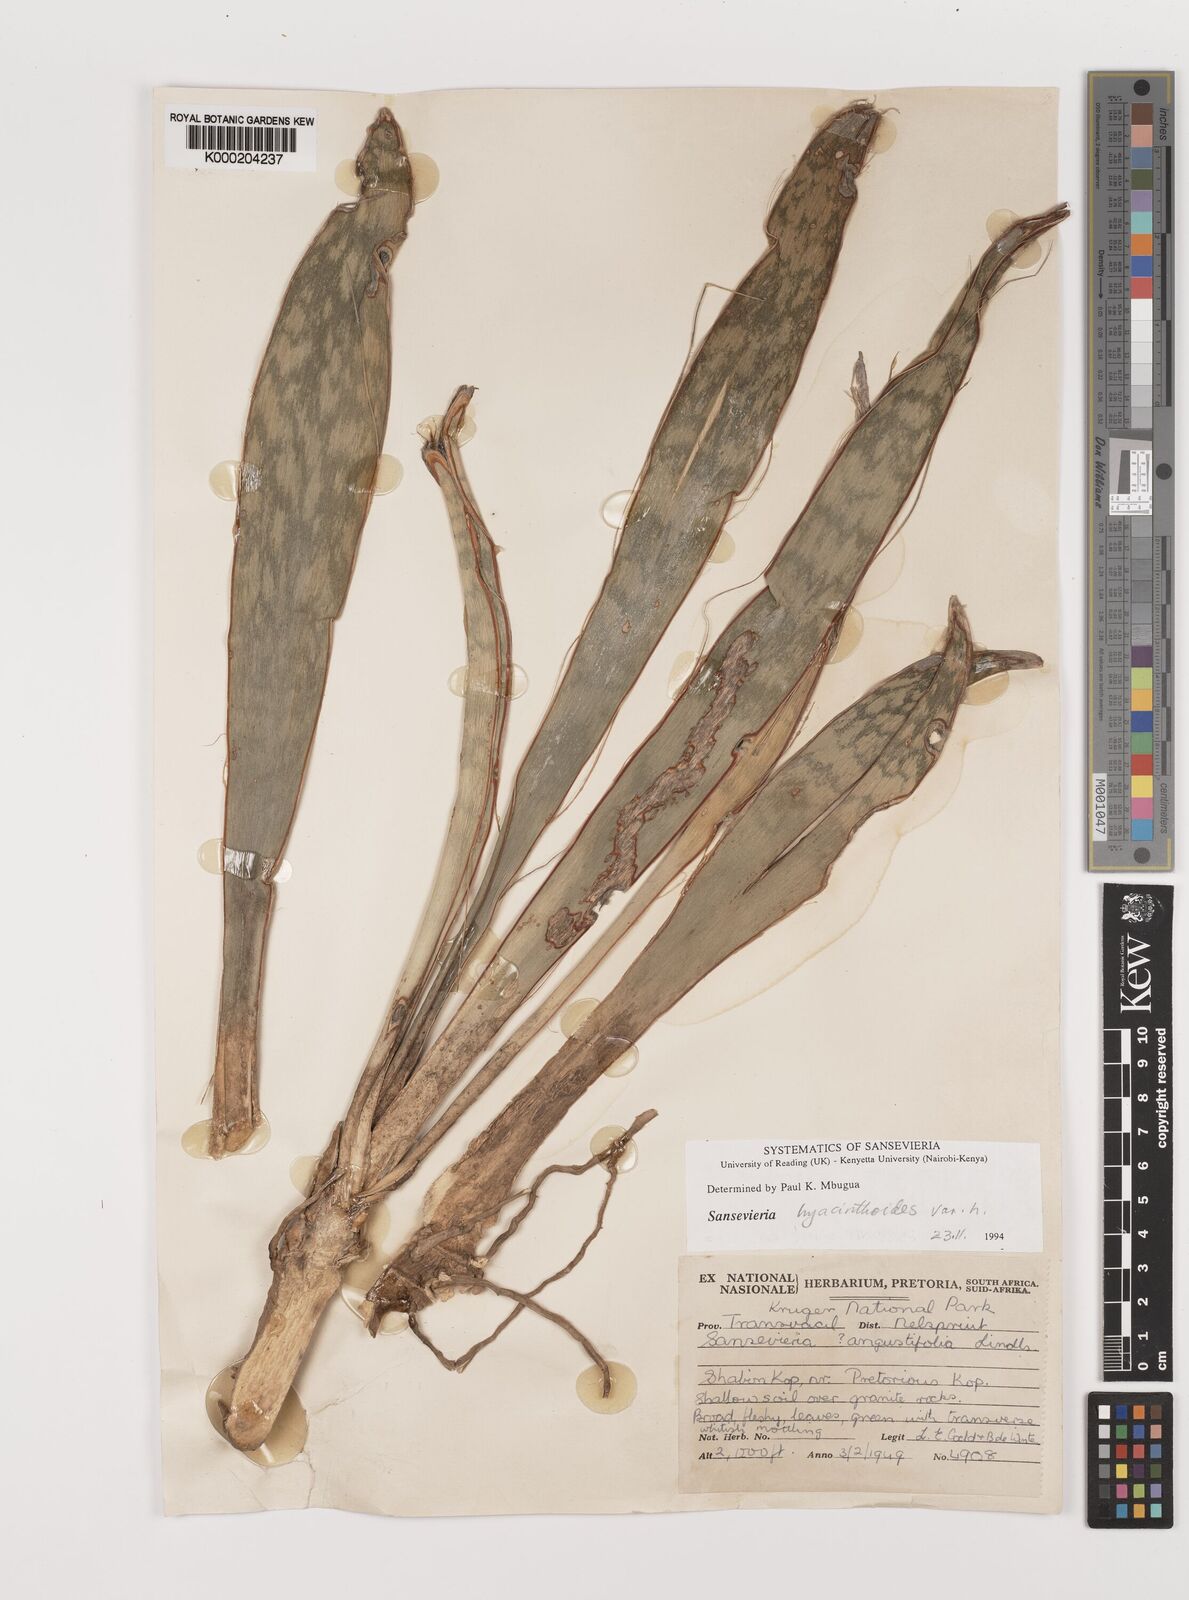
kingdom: Plantae
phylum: Tracheophyta
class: Liliopsida
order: Asparagales
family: Asparagaceae
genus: Dracaena
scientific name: Dracaena hyacinthoides
